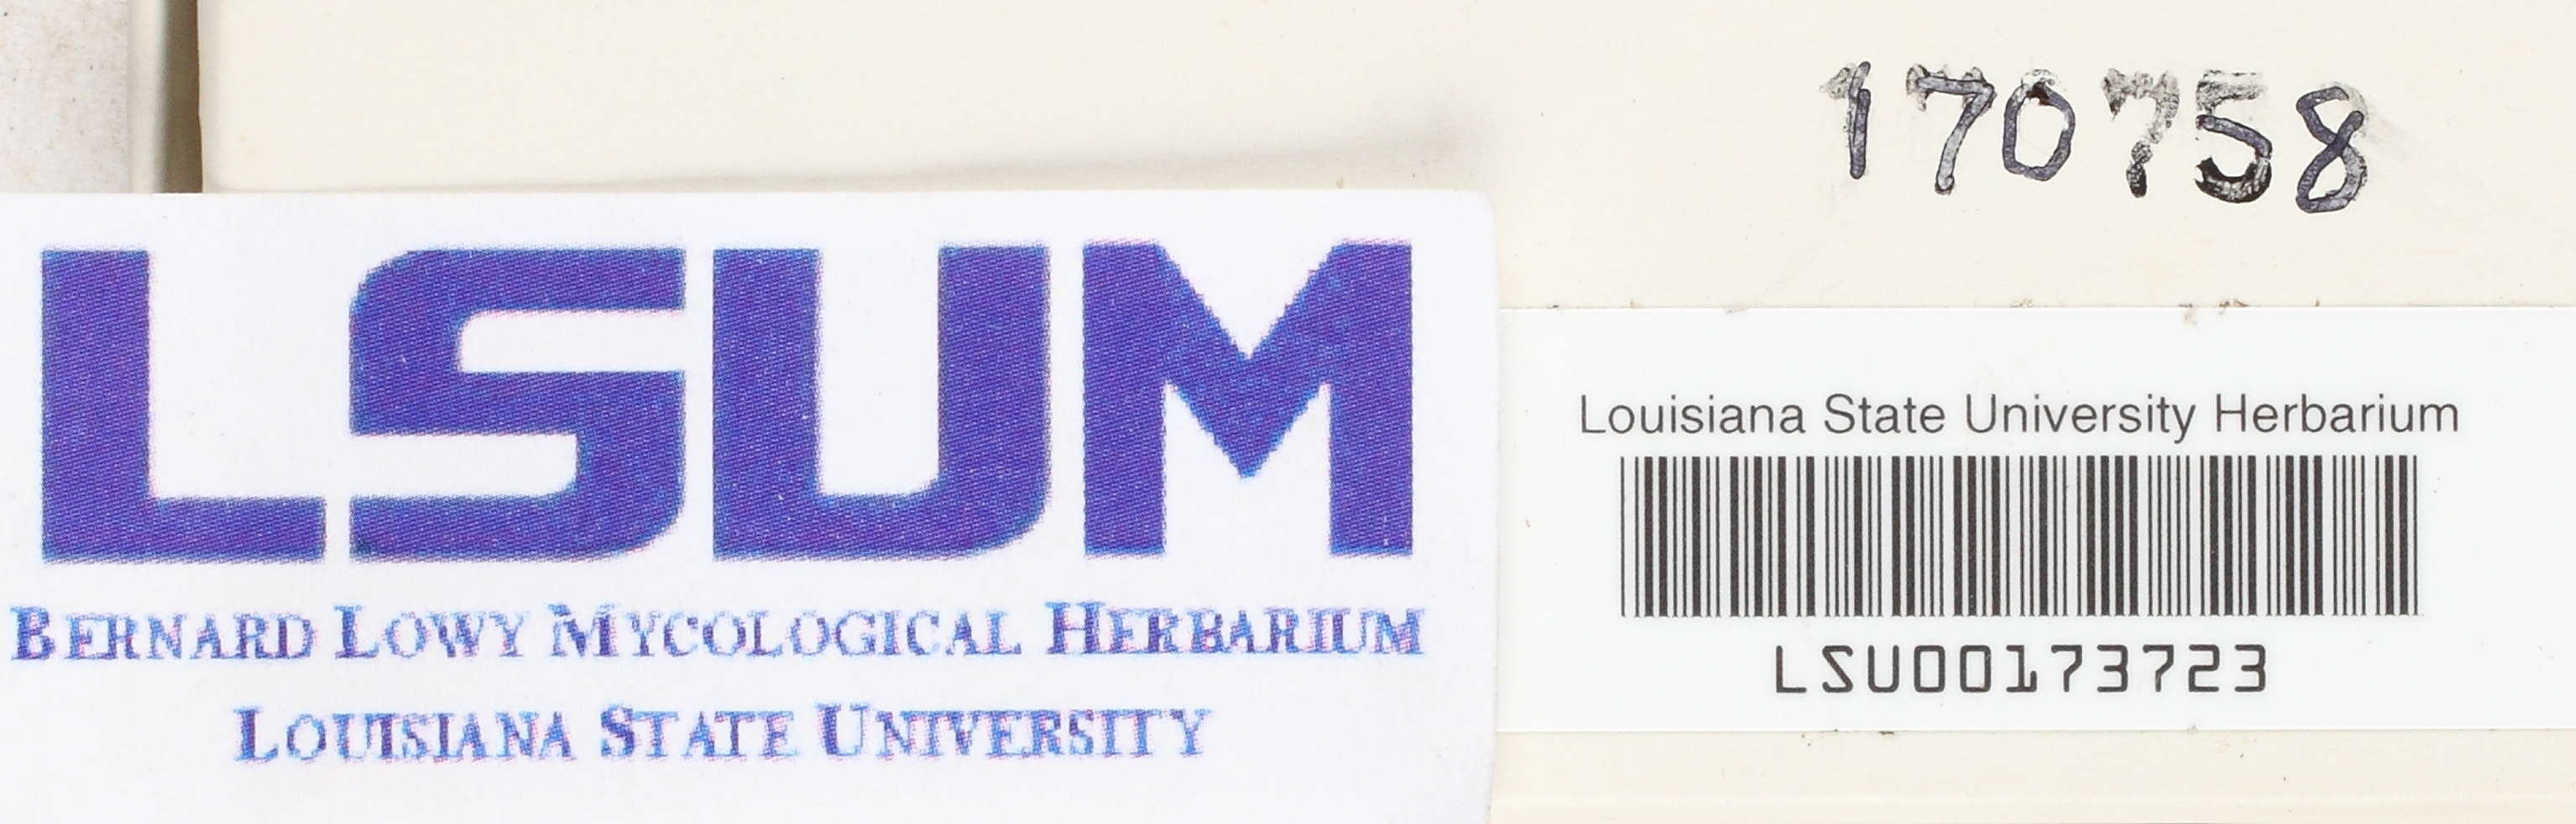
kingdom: Protozoa
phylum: Amoebozoa
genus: Ceratiomyxa
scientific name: Ceratiomyxa
